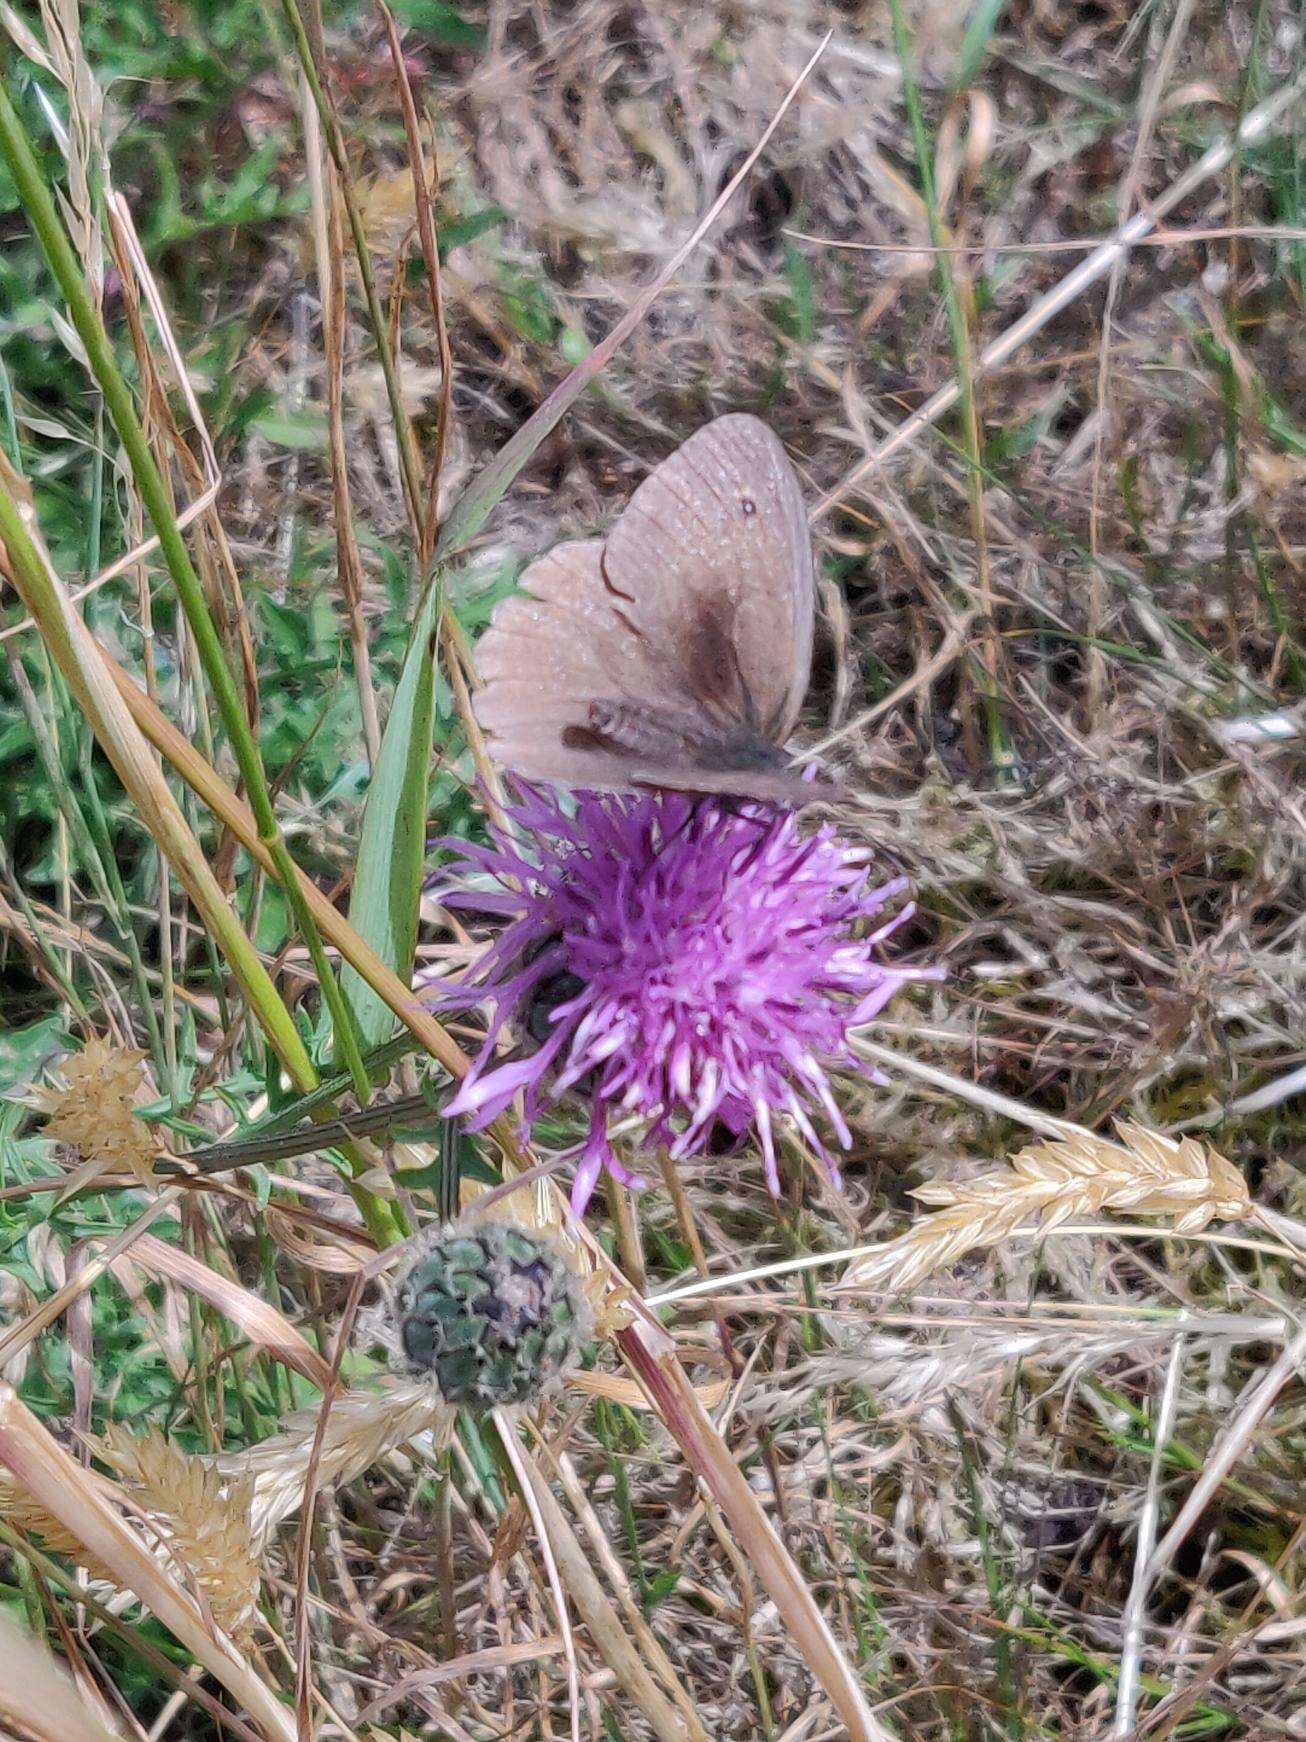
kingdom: Animalia
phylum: Arthropoda
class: Insecta
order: Lepidoptera
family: Nymphalidae
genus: Maniola
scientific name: Maniola jurtina
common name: Græsrandøje
